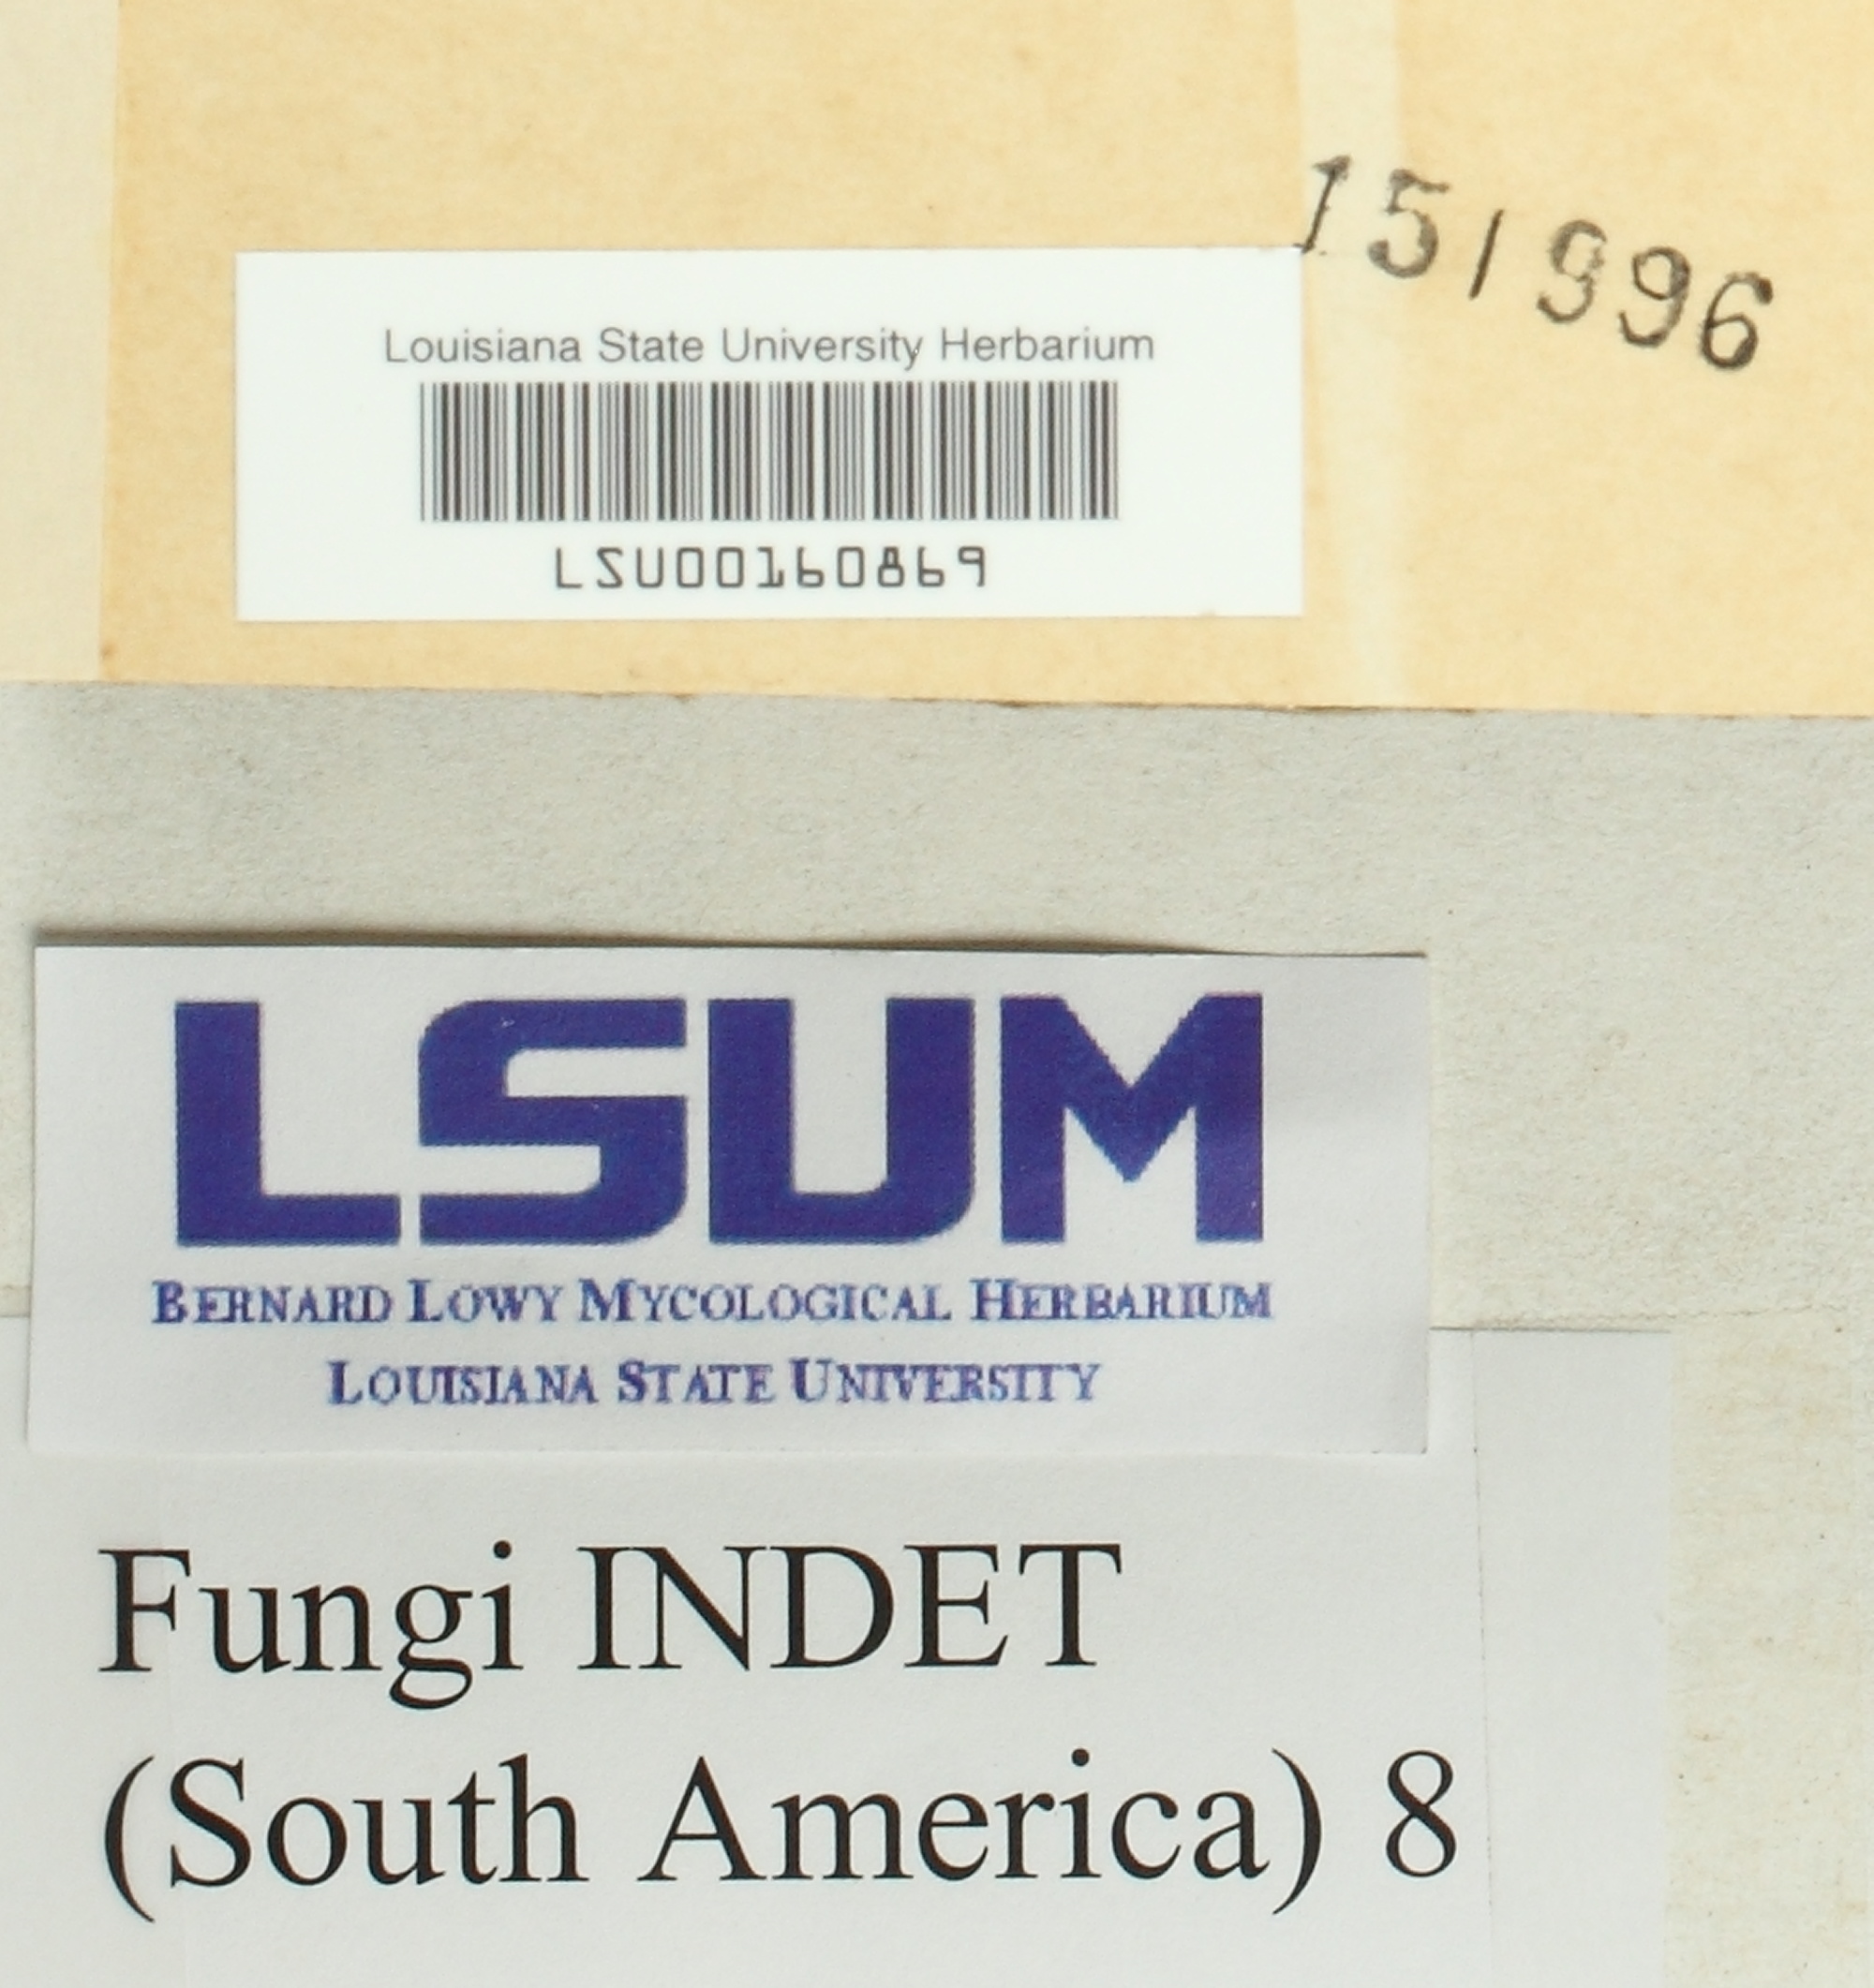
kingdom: Fungi
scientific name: Fungi
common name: Fungi
